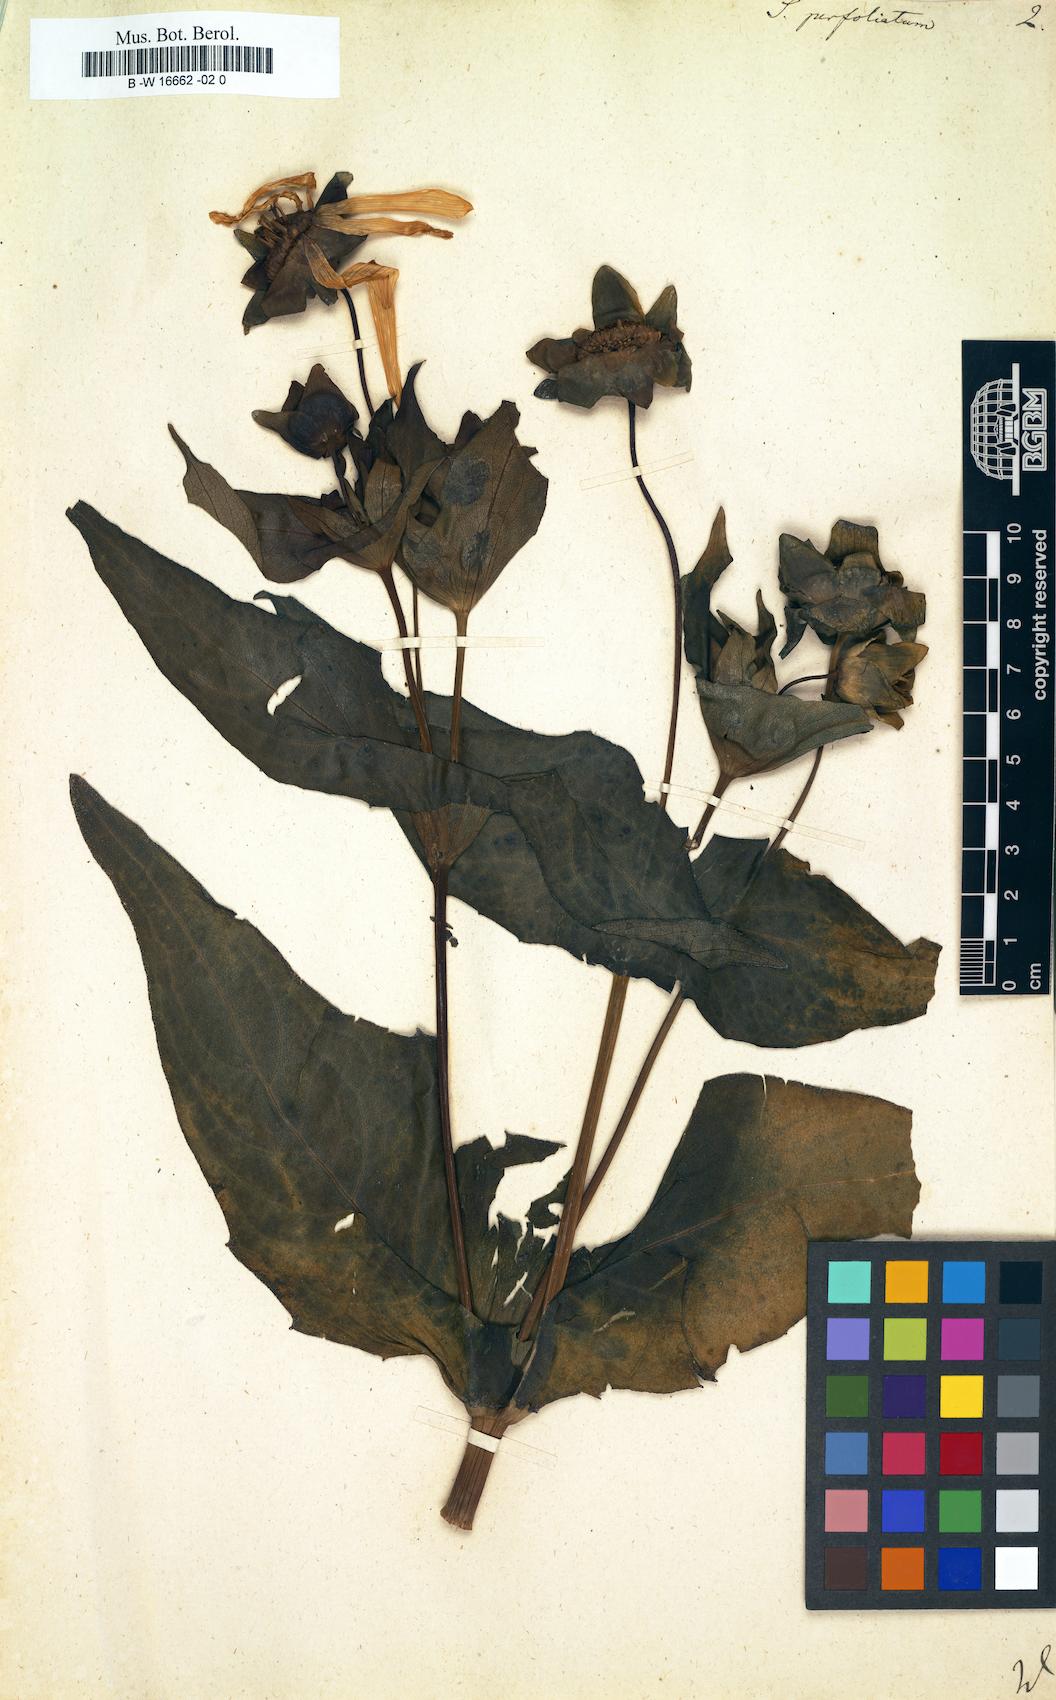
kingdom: Plantae
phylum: Tracheophyta
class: Magnoliopsida
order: Asterales
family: Asteraceae
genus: Silphium
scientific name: Silphium perfoliatum
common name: Cup-plant
